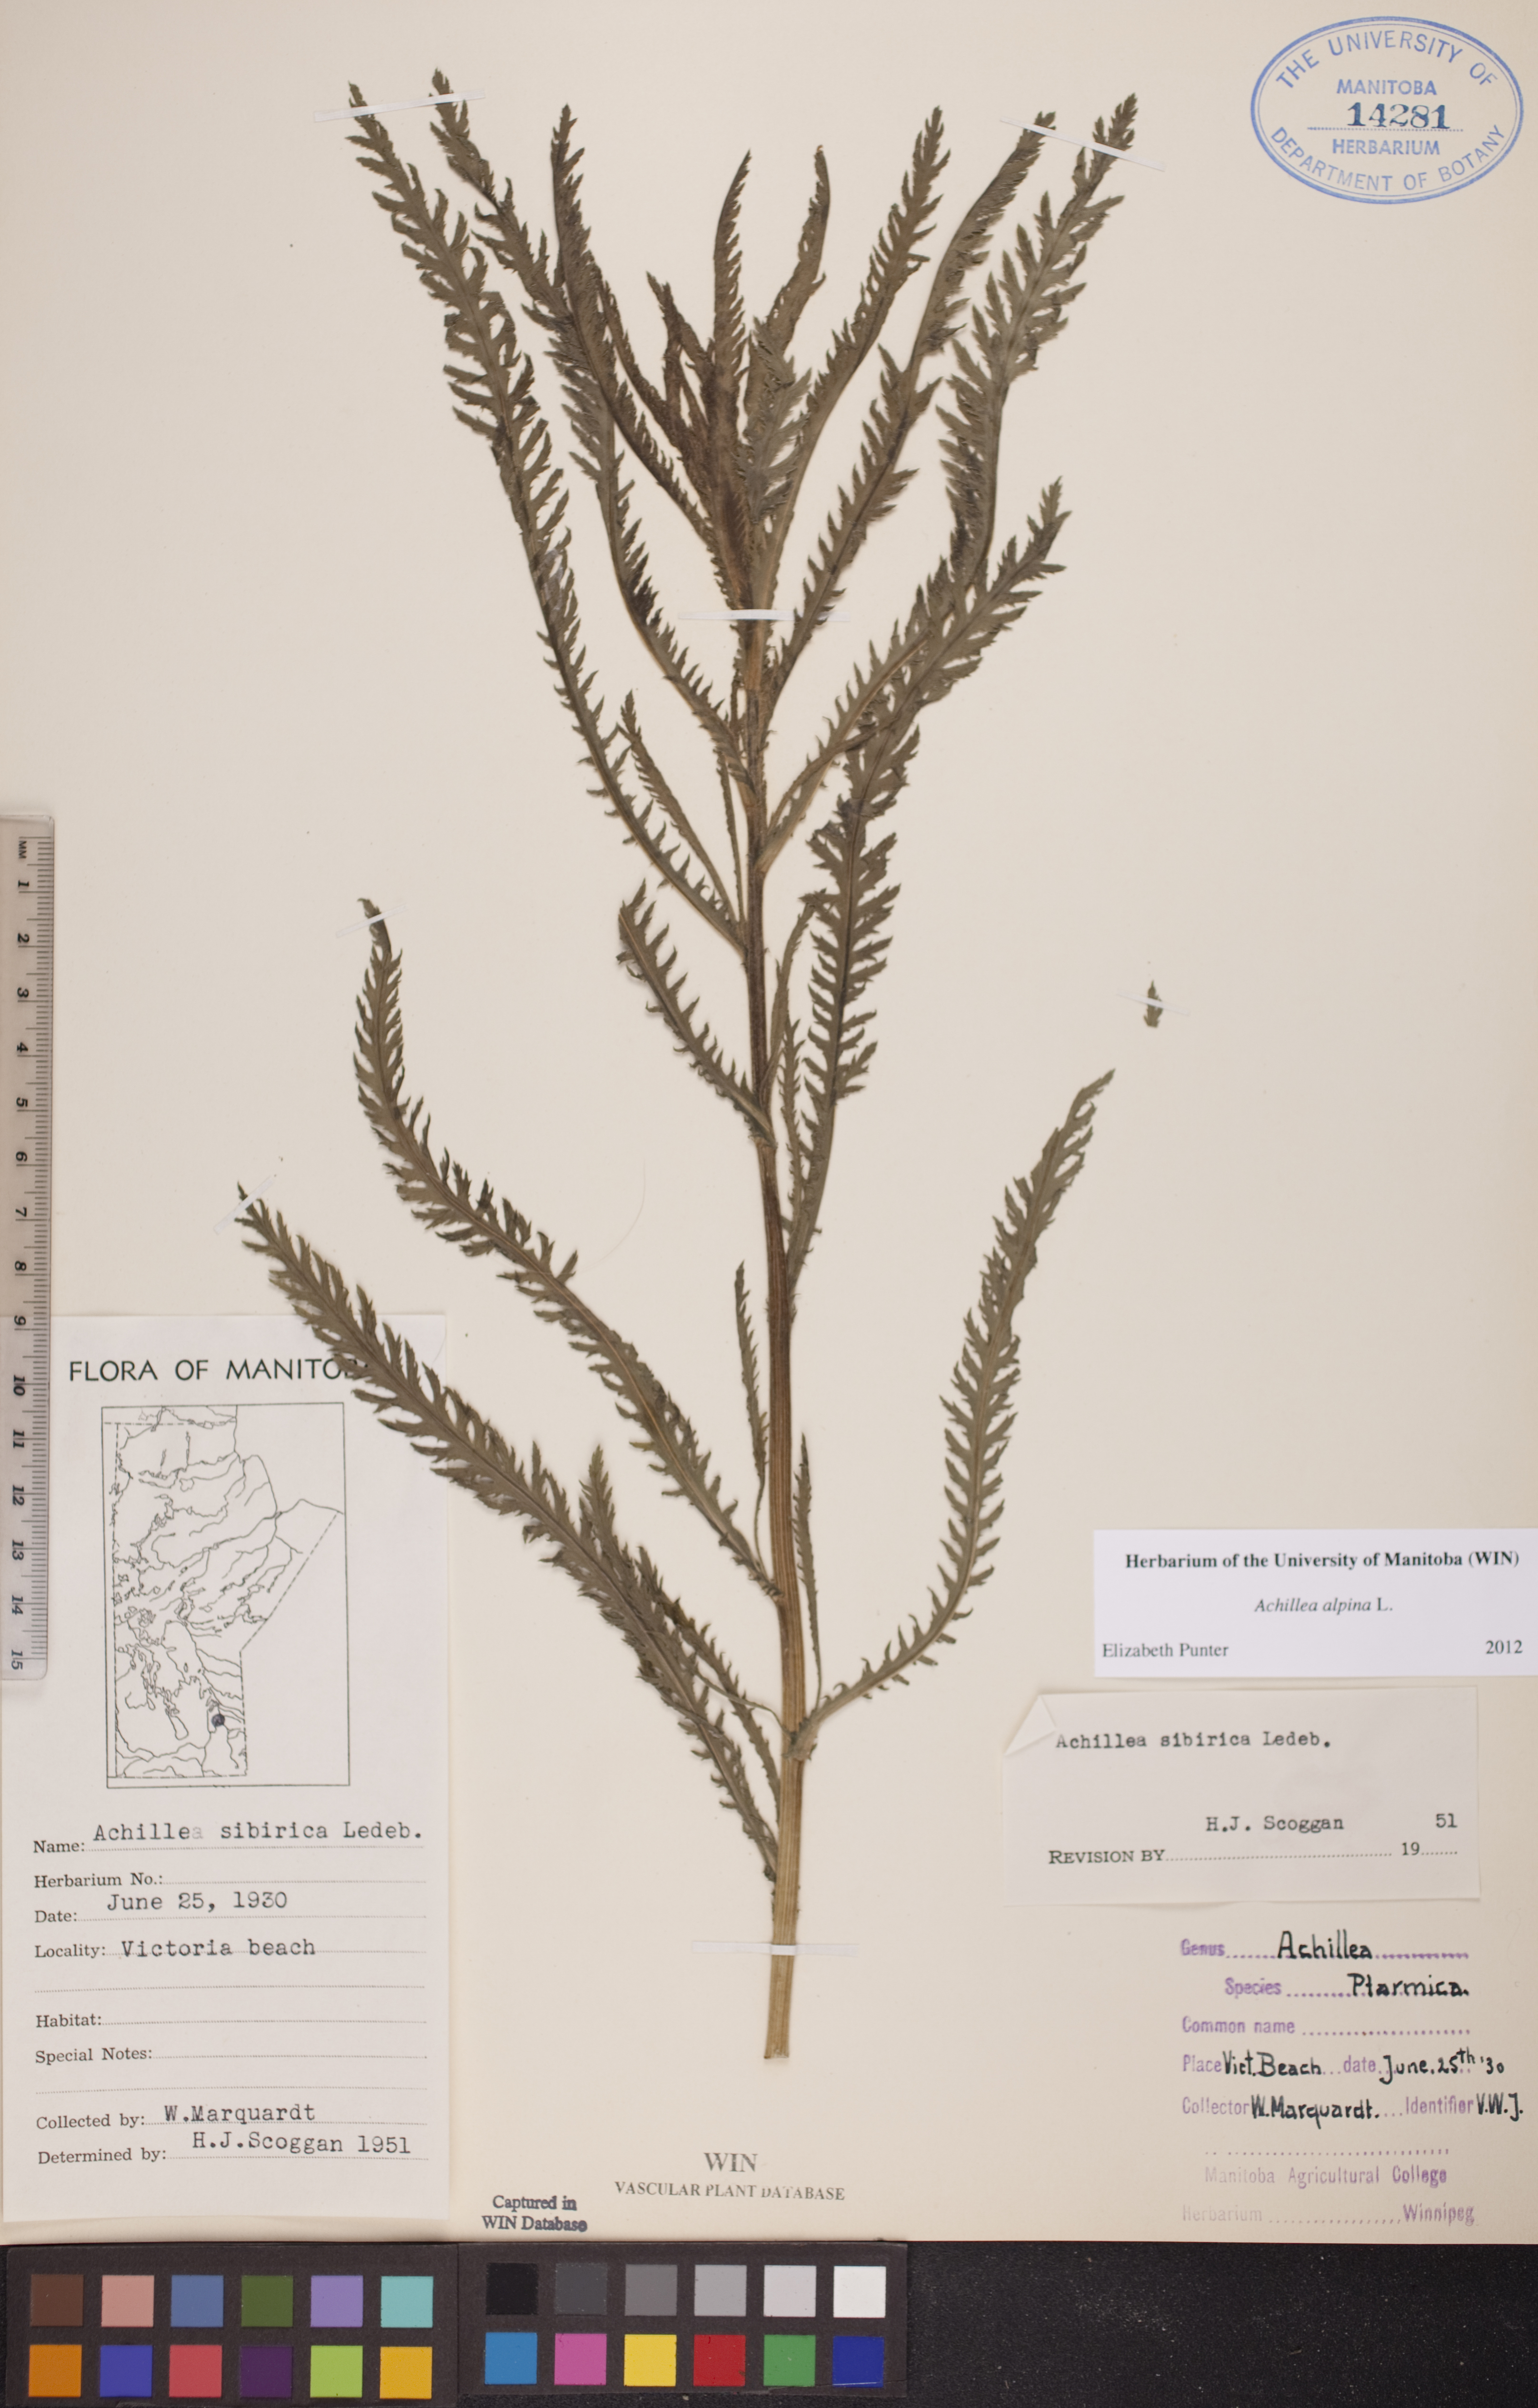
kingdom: Plantae
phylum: Tracheophyta
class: Magnoliopsida
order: Asterales
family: Asteraceae
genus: Achillea
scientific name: Achillea alpina
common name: Siberian yarrow
